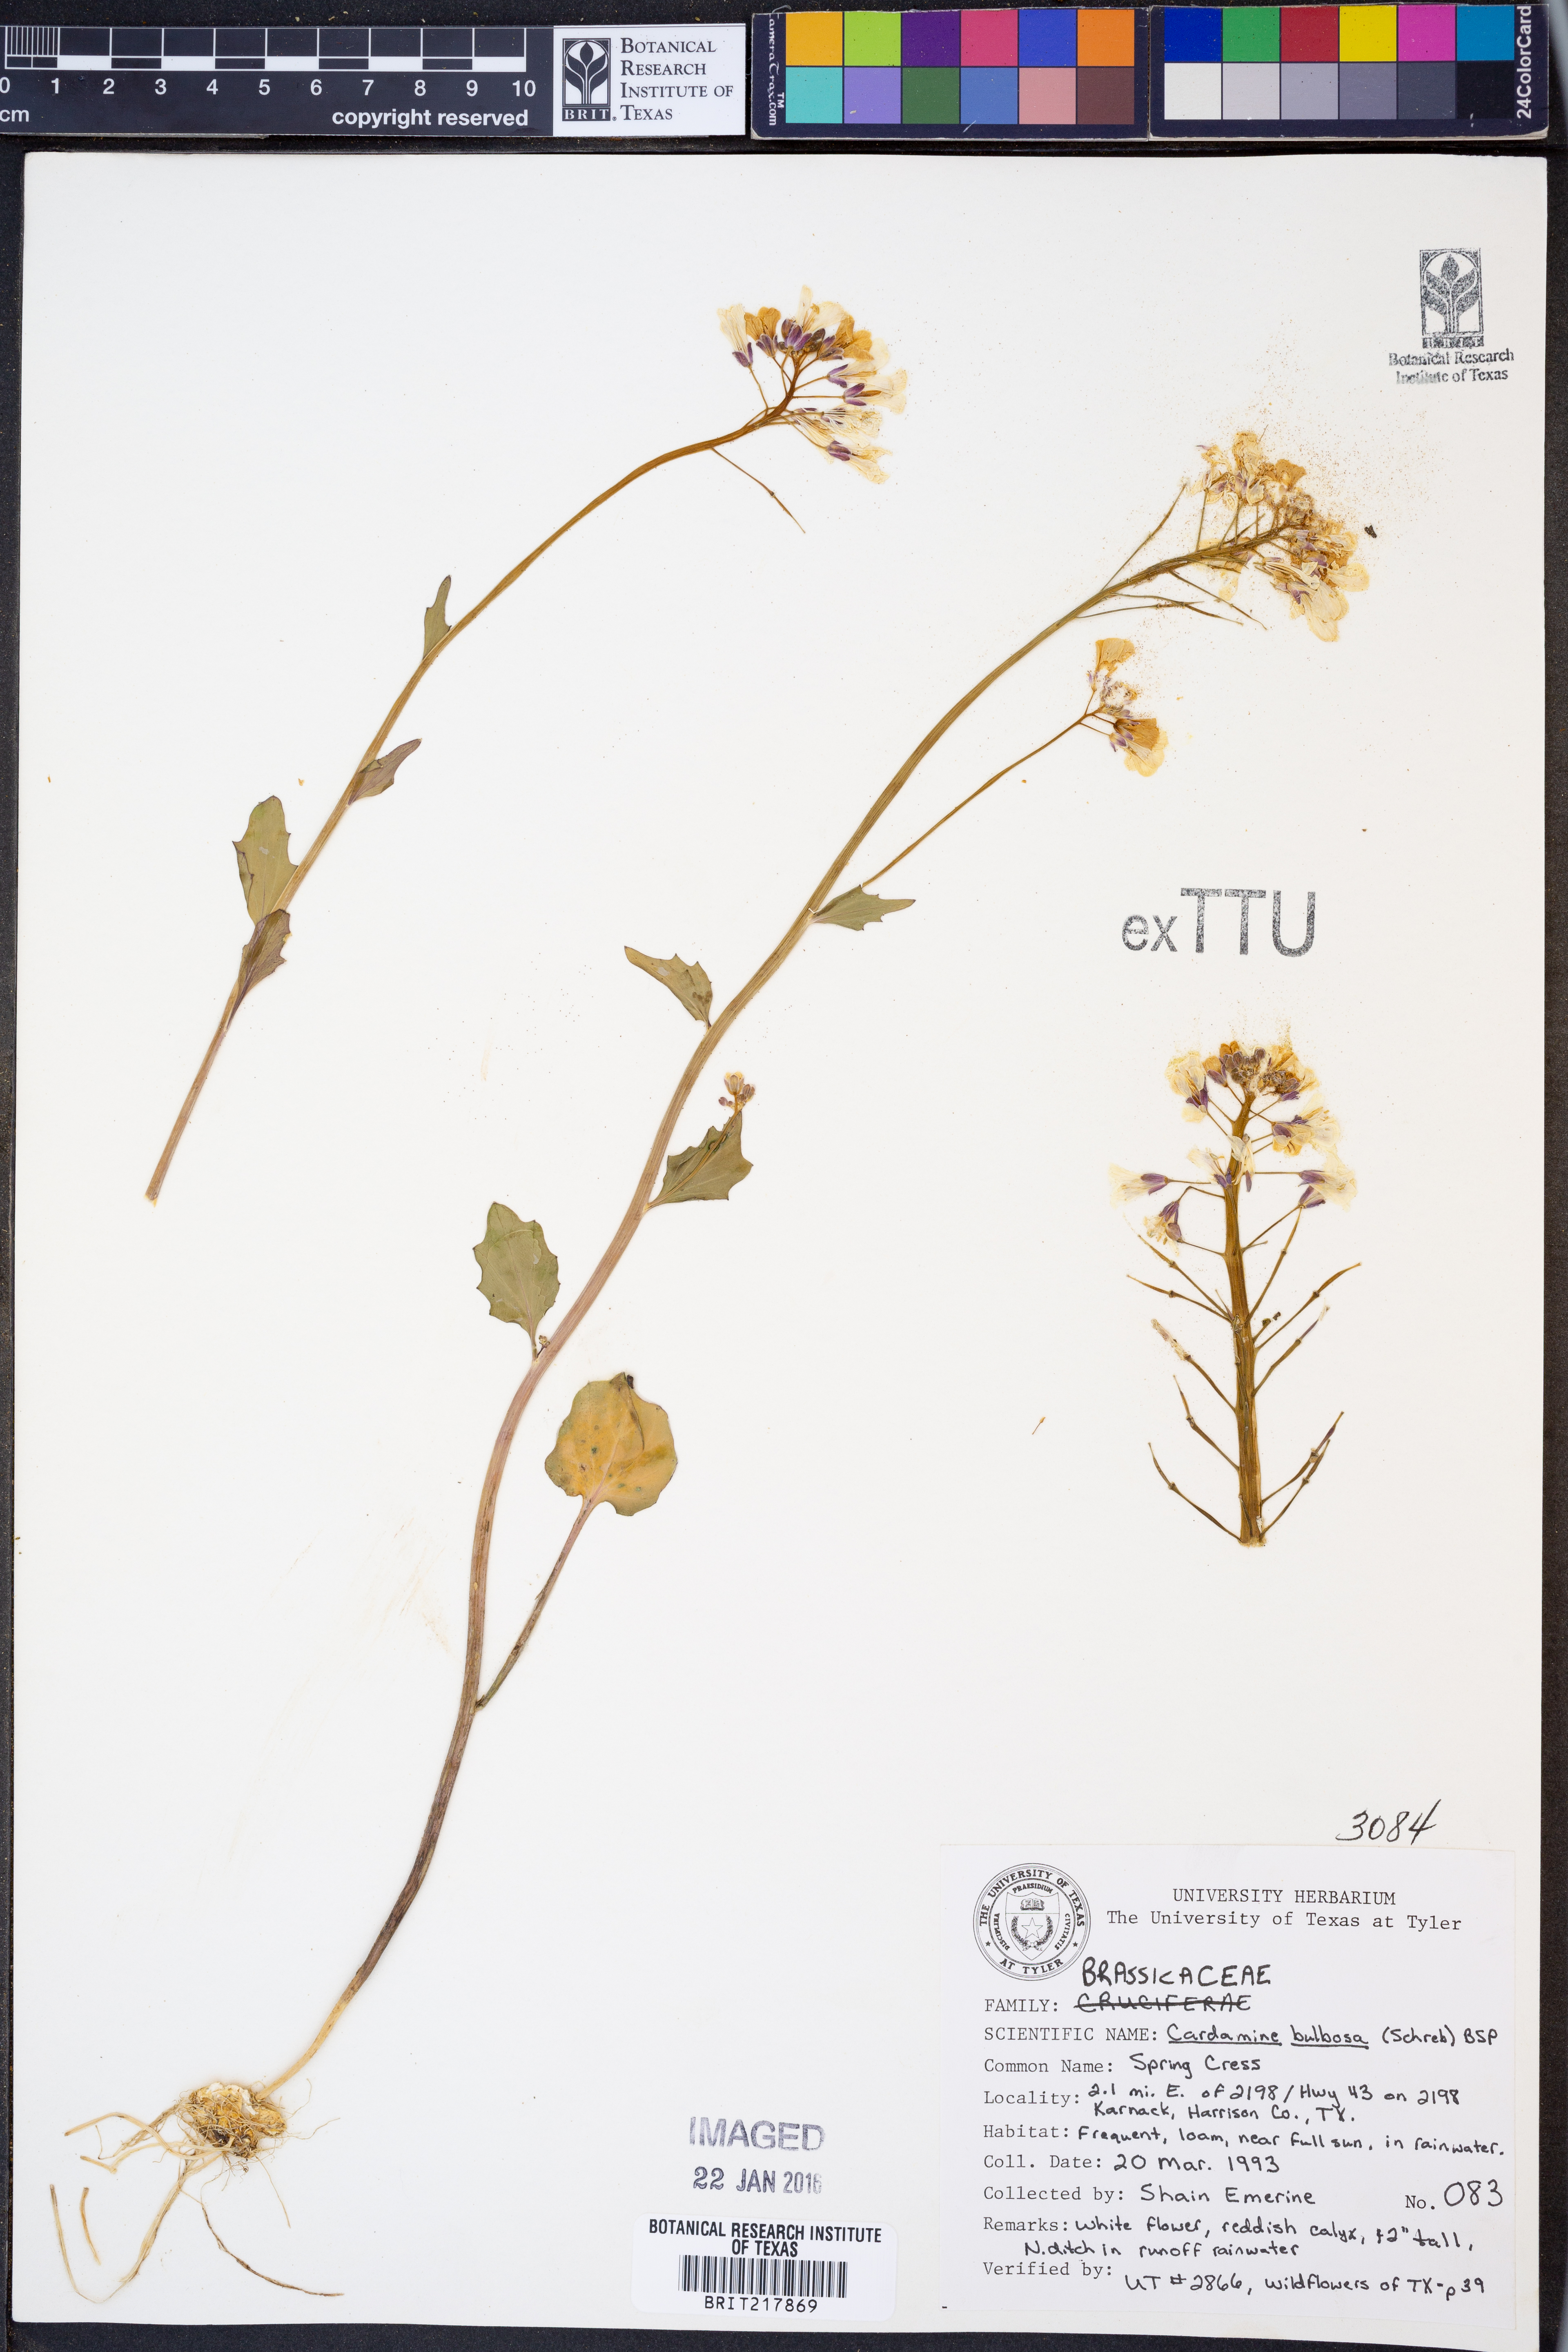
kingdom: Plantae
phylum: Tracheophyta
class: Magnoliopsida
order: Brassicales
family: Brassicaceae
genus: Cardamine
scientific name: Cardamine bulbosa
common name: Spring cress
